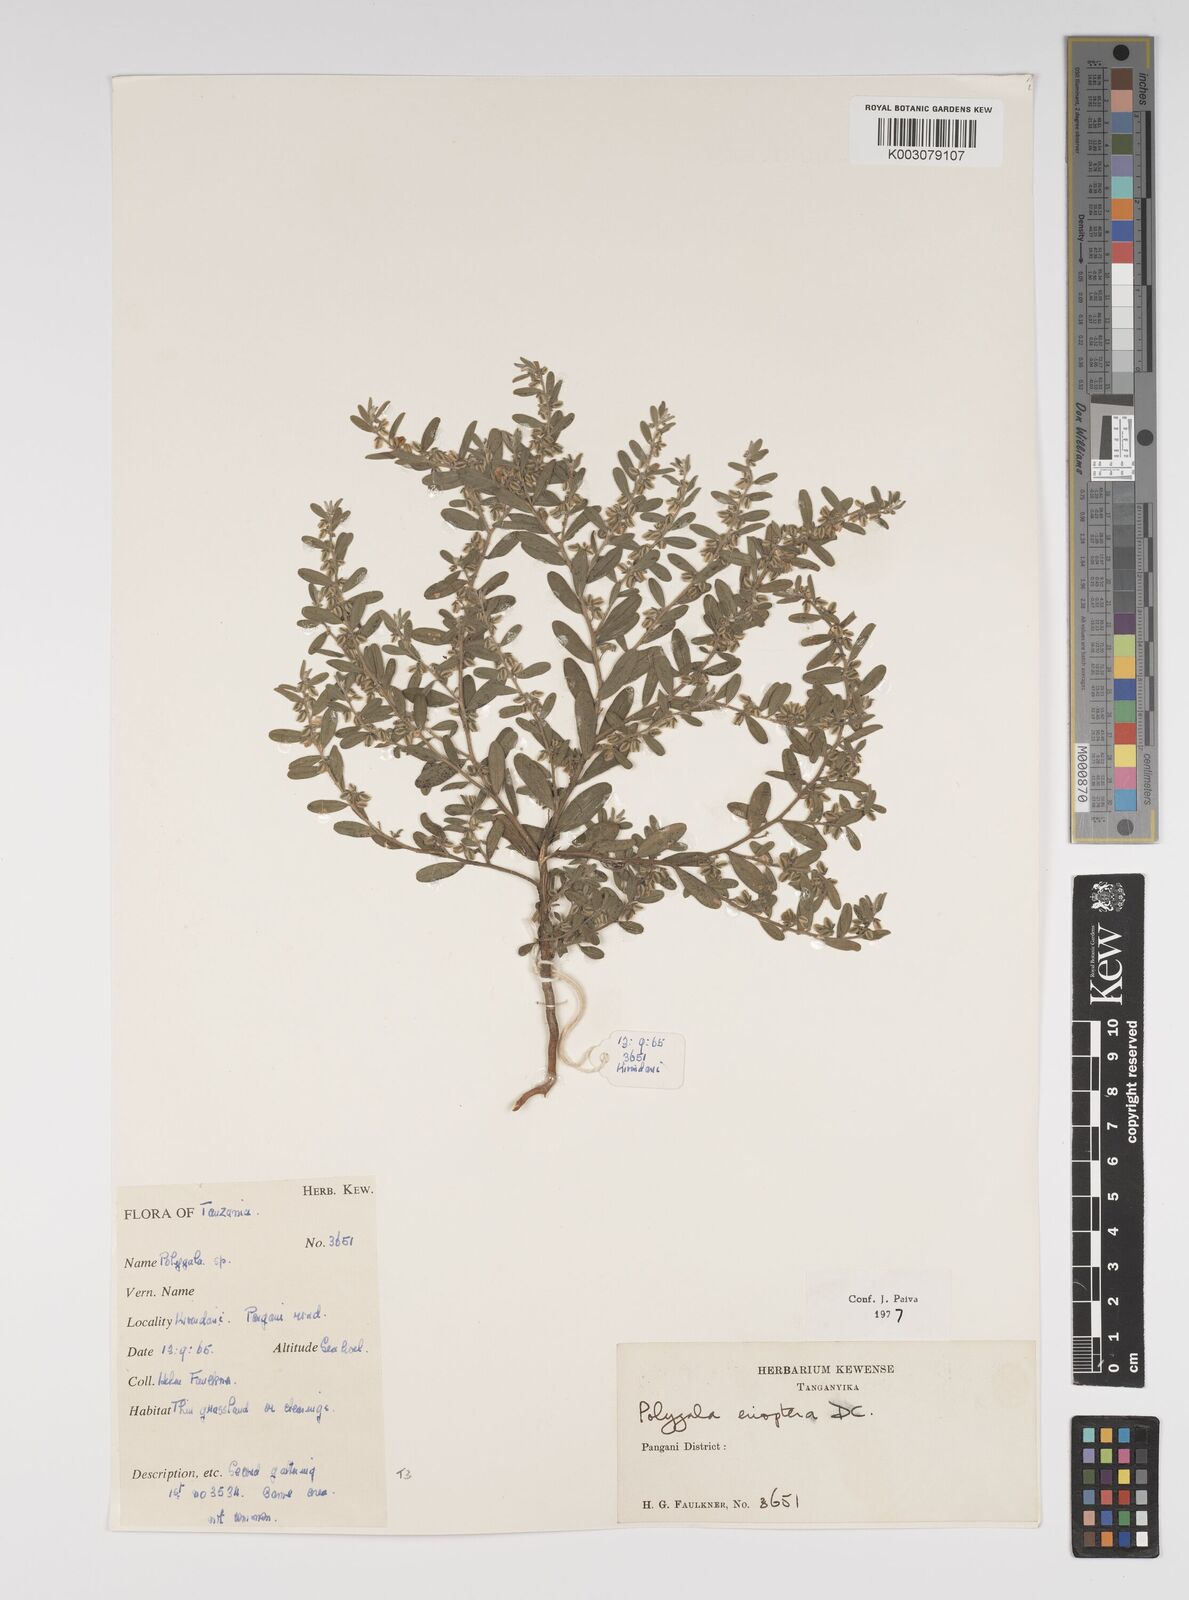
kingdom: Plantae
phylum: Tracheophyta
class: Magnoliopsida
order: Fabales
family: Polygalaceae
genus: Polygala
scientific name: Polygala erioptera
